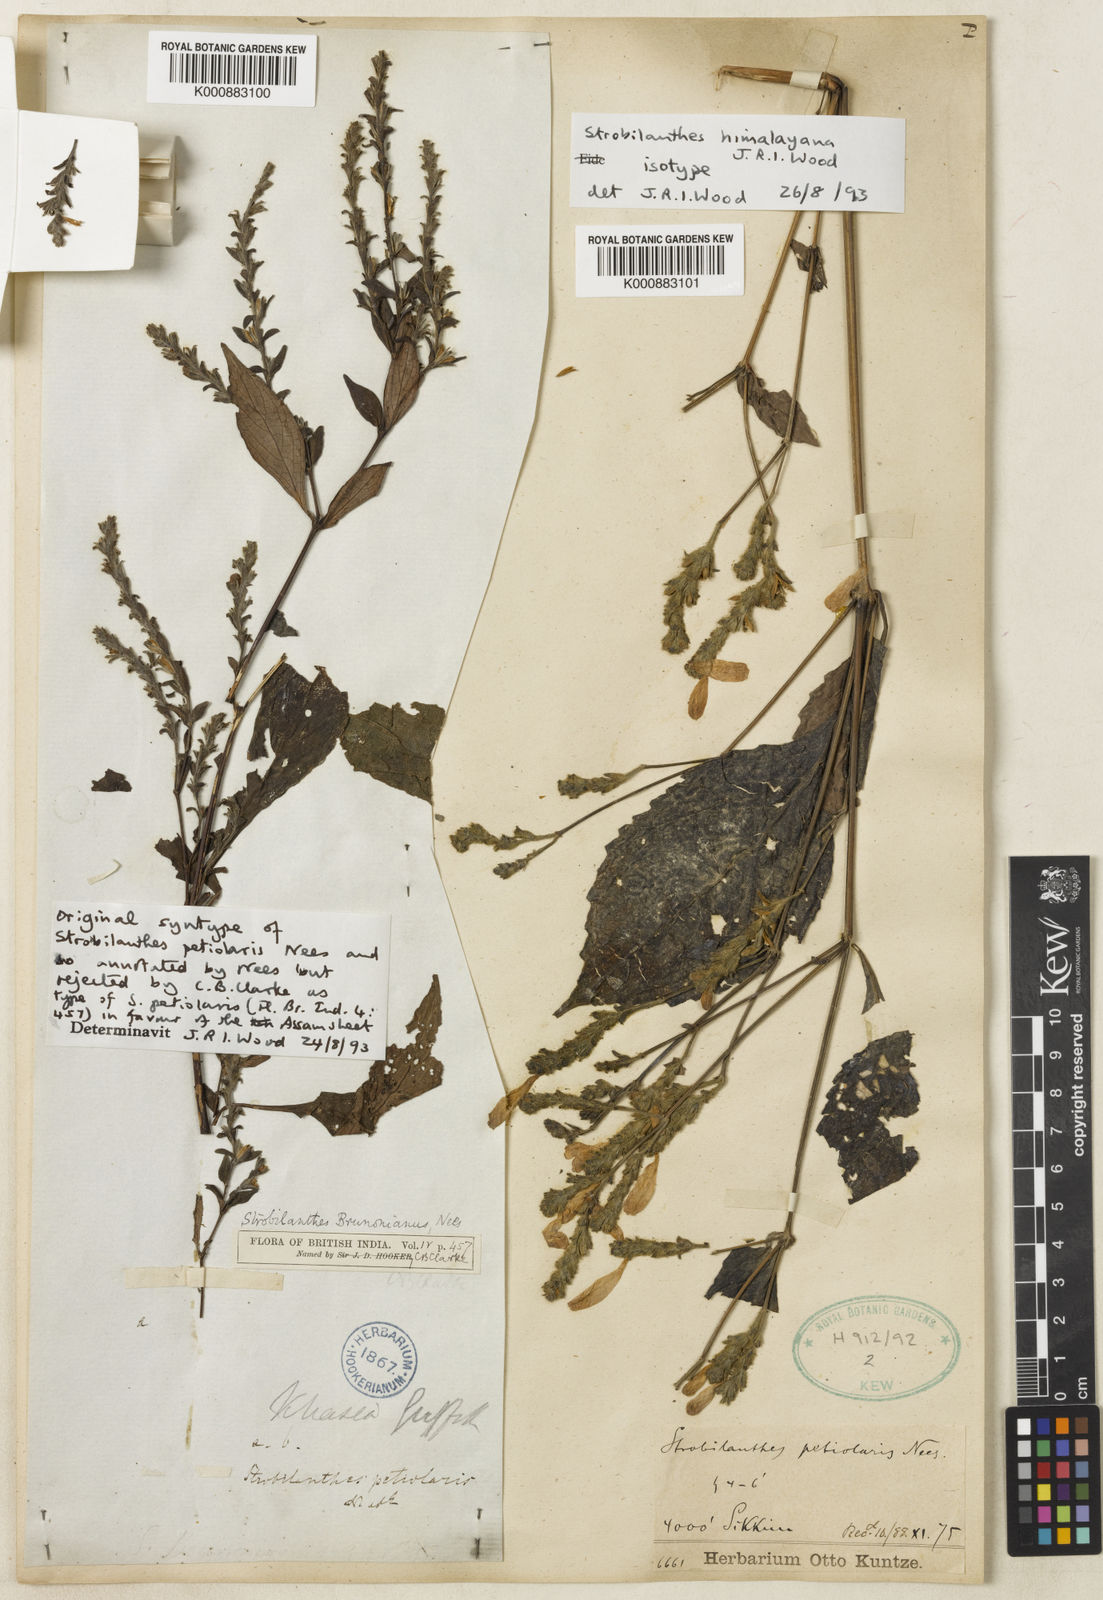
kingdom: Plantae
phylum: Tracheophyta
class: Magnoliopsida
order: Lamiales
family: Acanthaceae
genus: Strobilanthes
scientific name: Strobilanthes monadelpha
